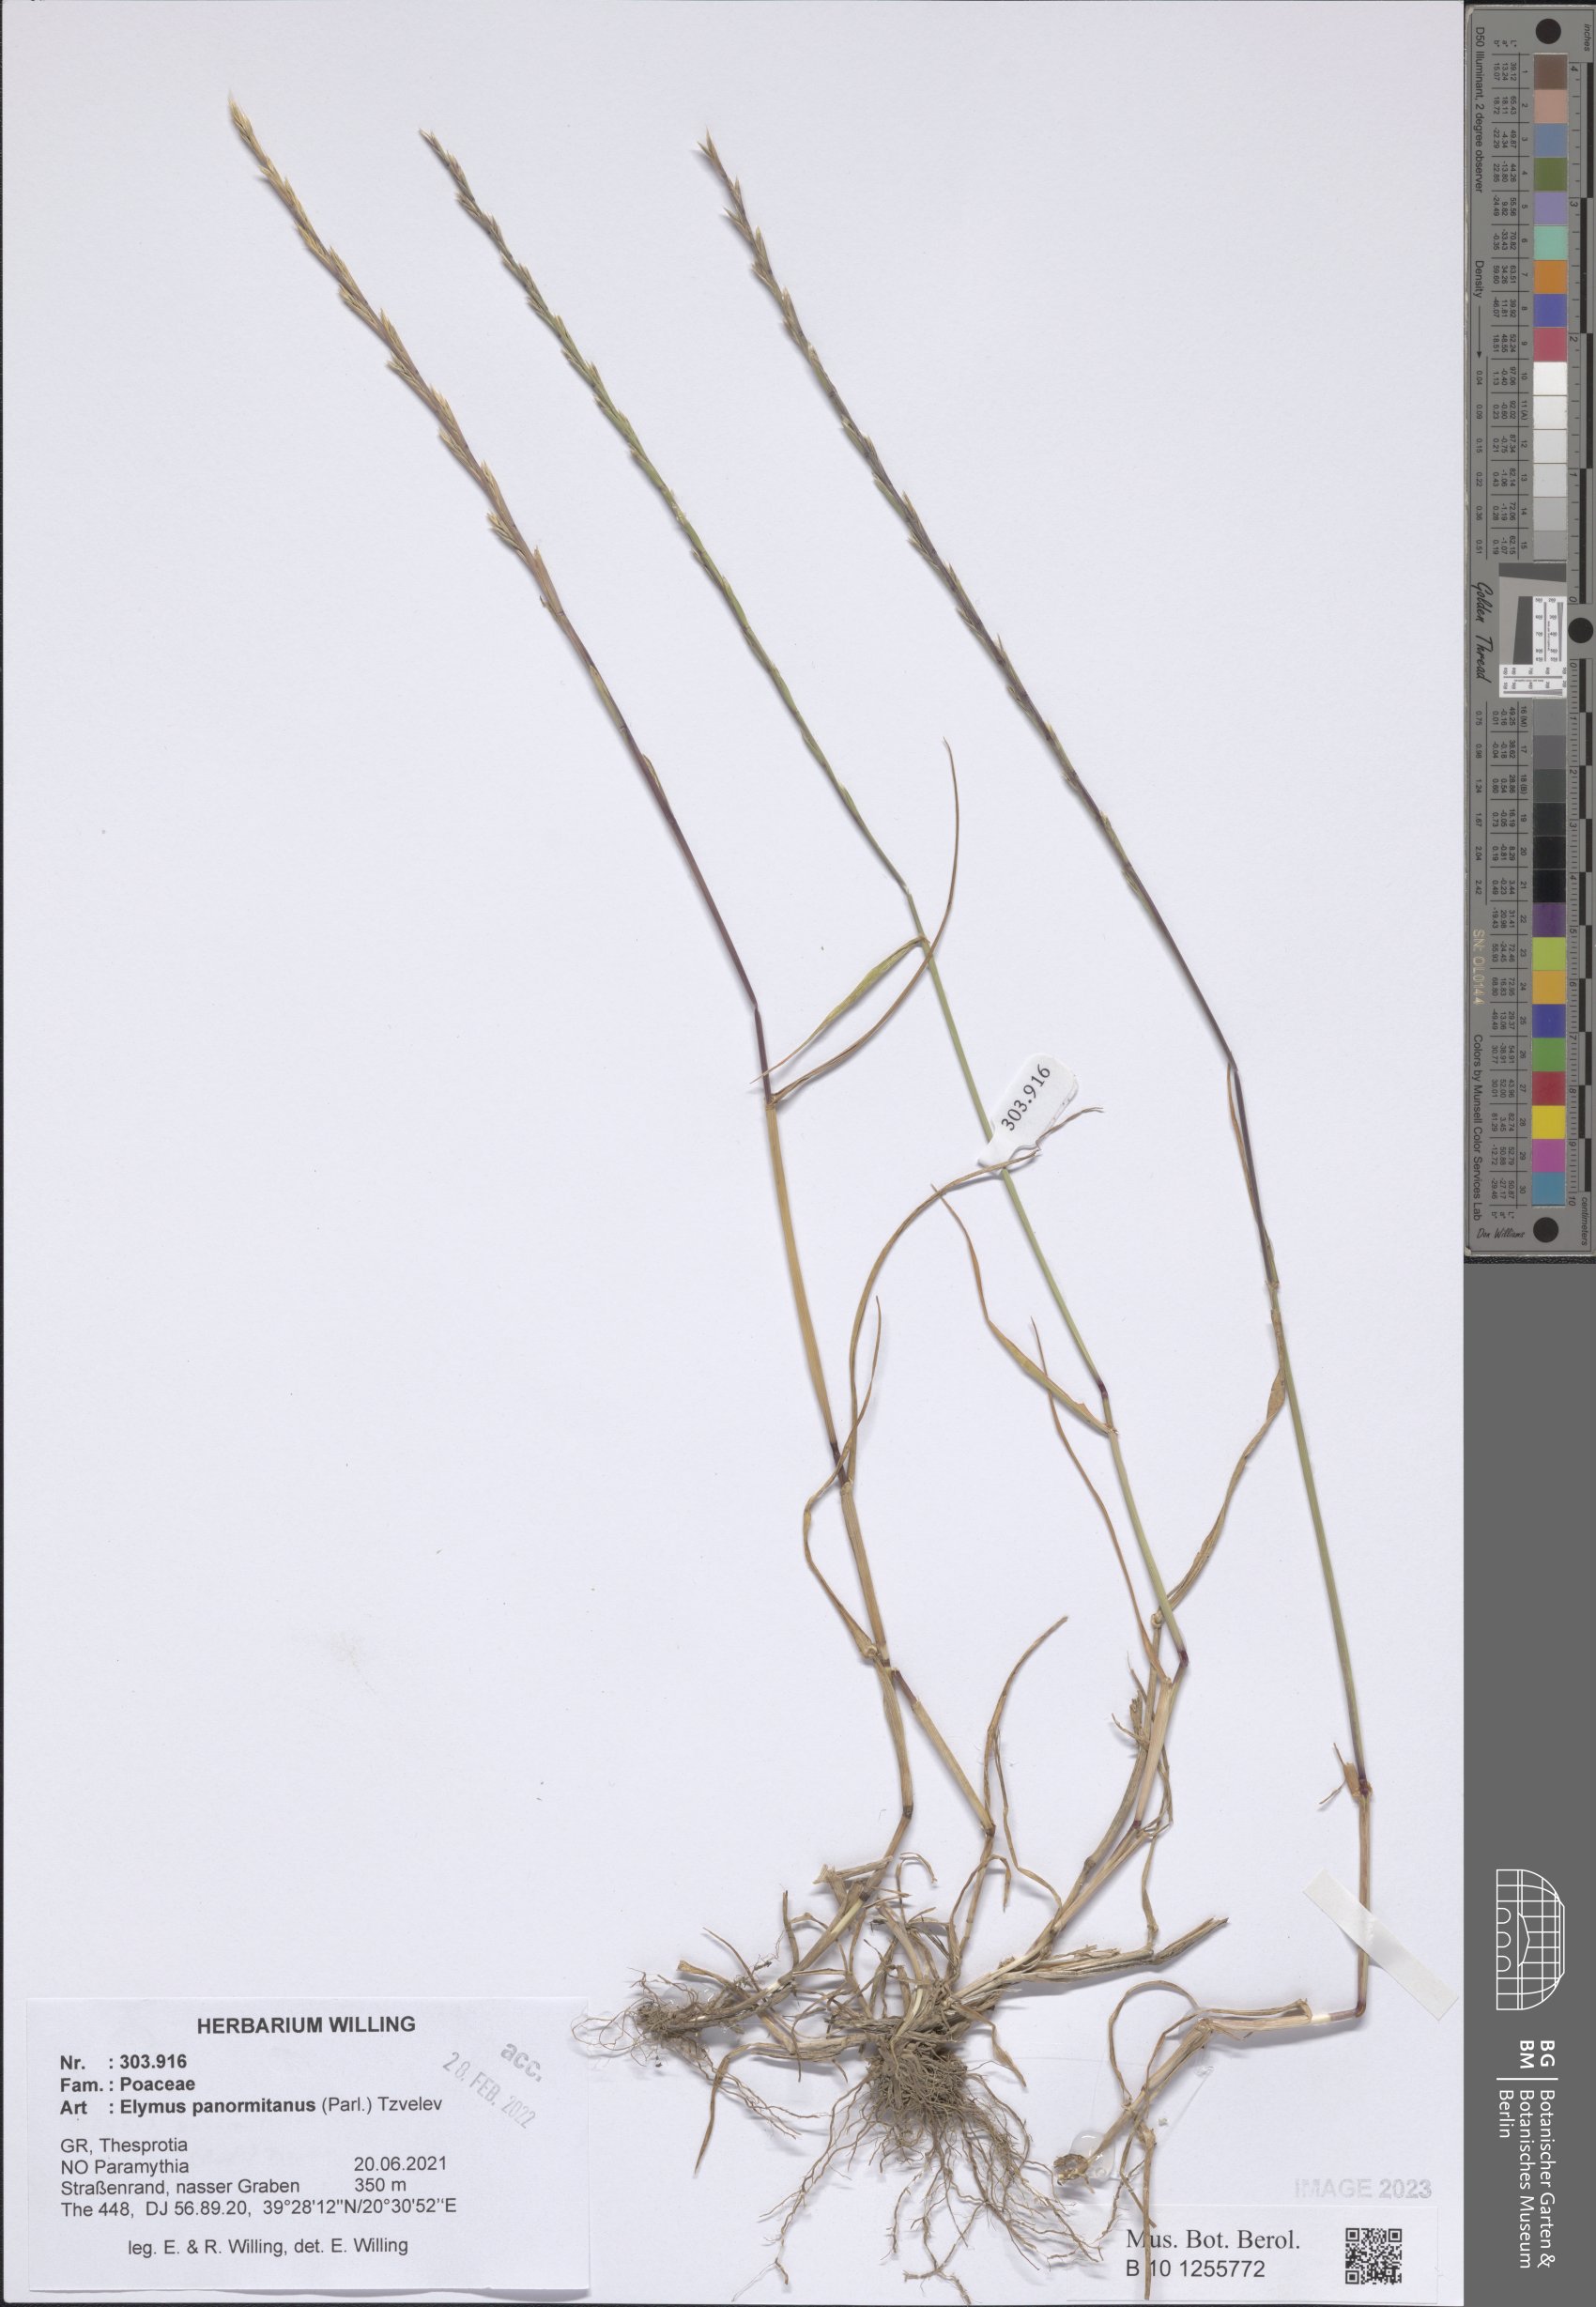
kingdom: Plantae
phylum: Tracheophyta
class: Liliopsida
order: Poales
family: Poaceae
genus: Elymus
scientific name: Elymus panormitanus
